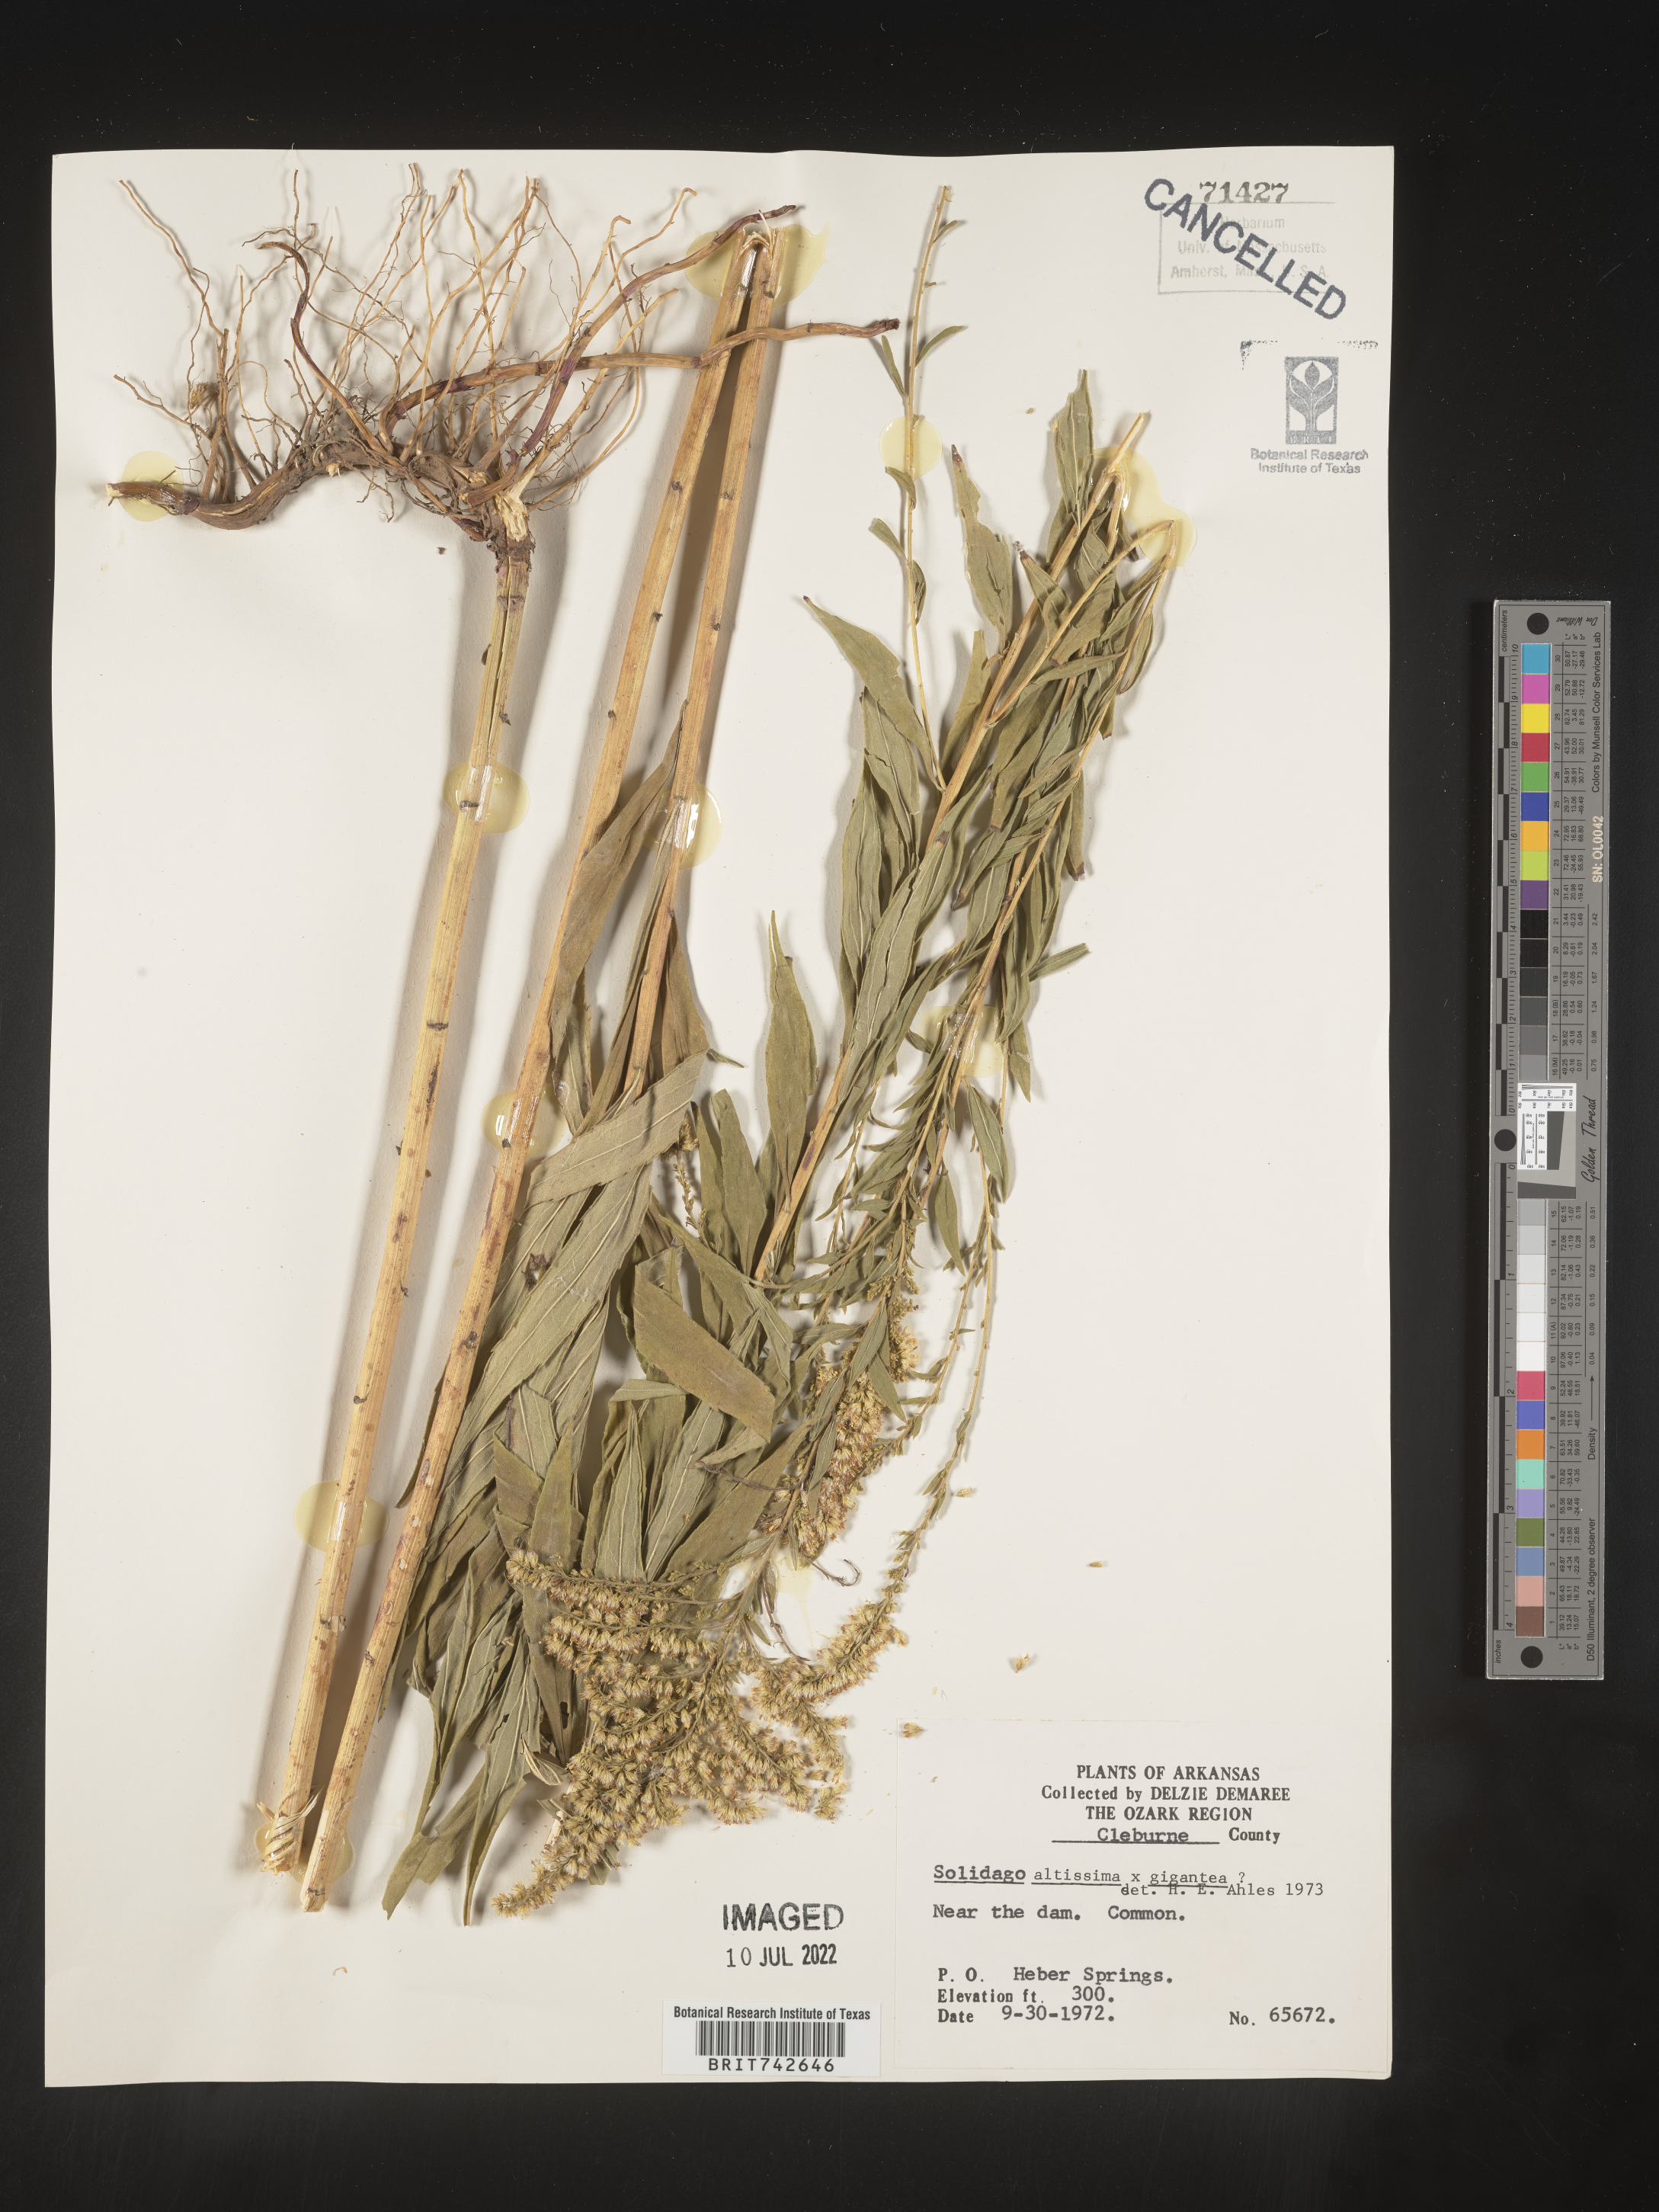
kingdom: Plantae
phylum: Tracheophyta
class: Magnoliopsida
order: Asterales
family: Asteraceae
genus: Solidago
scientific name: Solidago altissima
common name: Late goldenrod
